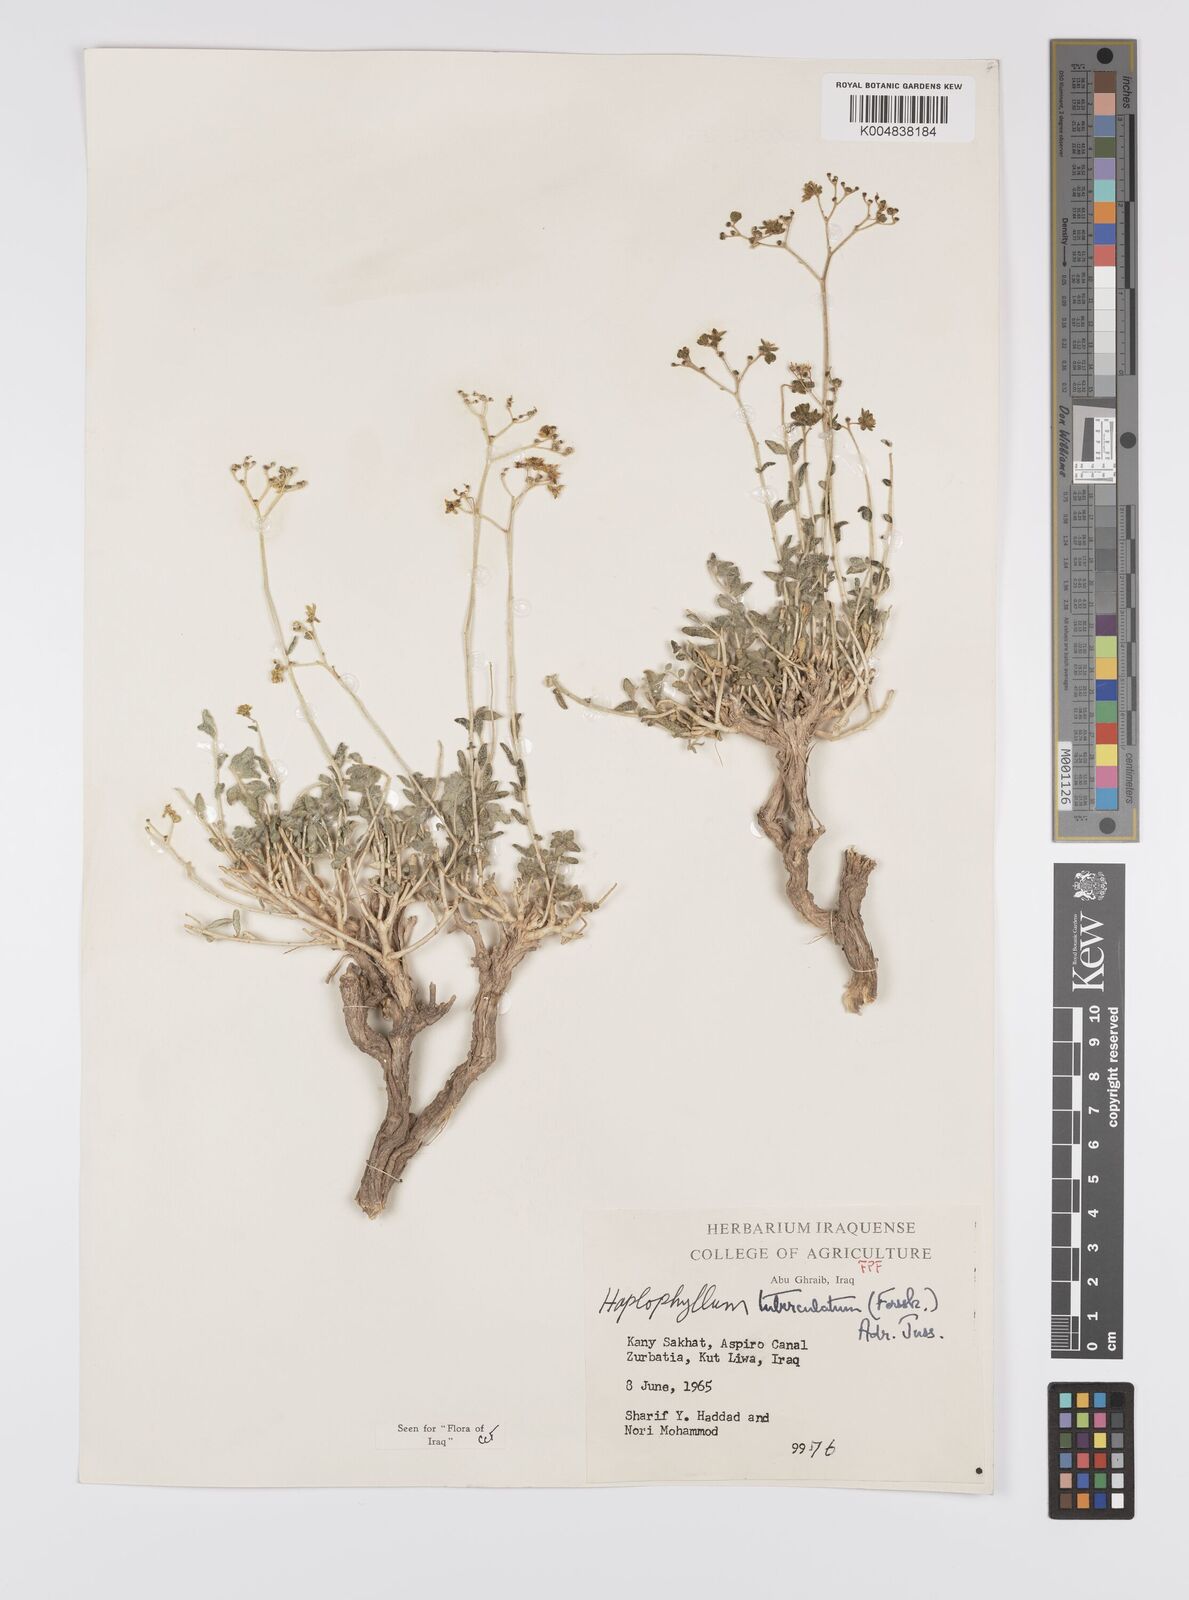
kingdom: Plantae
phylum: Tracheophyta
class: Magnoliopsida
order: Sapindales
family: Rutaceae
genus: Haplophyllum
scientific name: Haplophyllum tuberculatum
